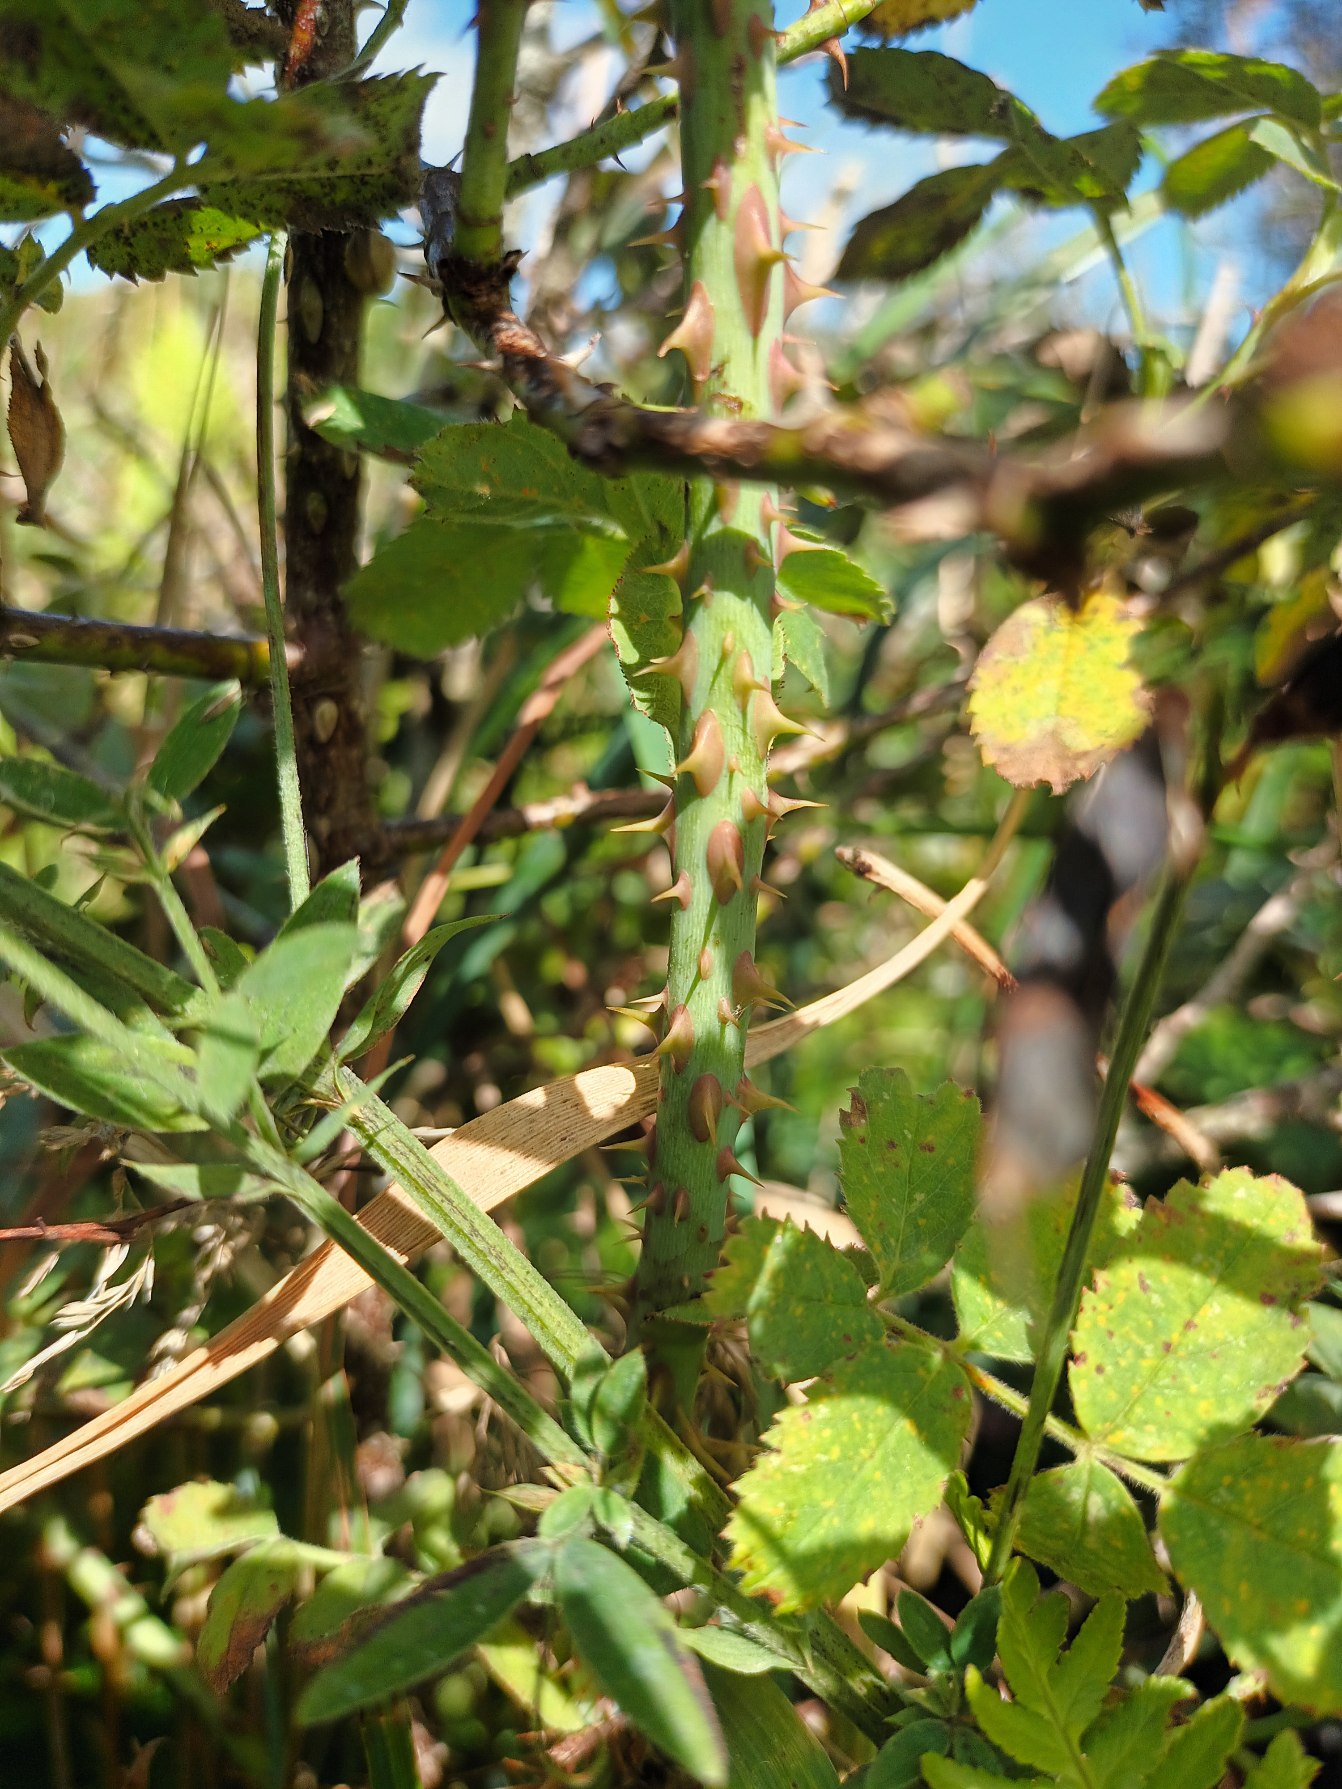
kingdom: Plantae
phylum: Tracheophyta
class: Magnoliopsida
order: Rosales
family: Rosaceae
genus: Rosa
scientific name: Rosa sherardii
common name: Kortstilket filt-rose
